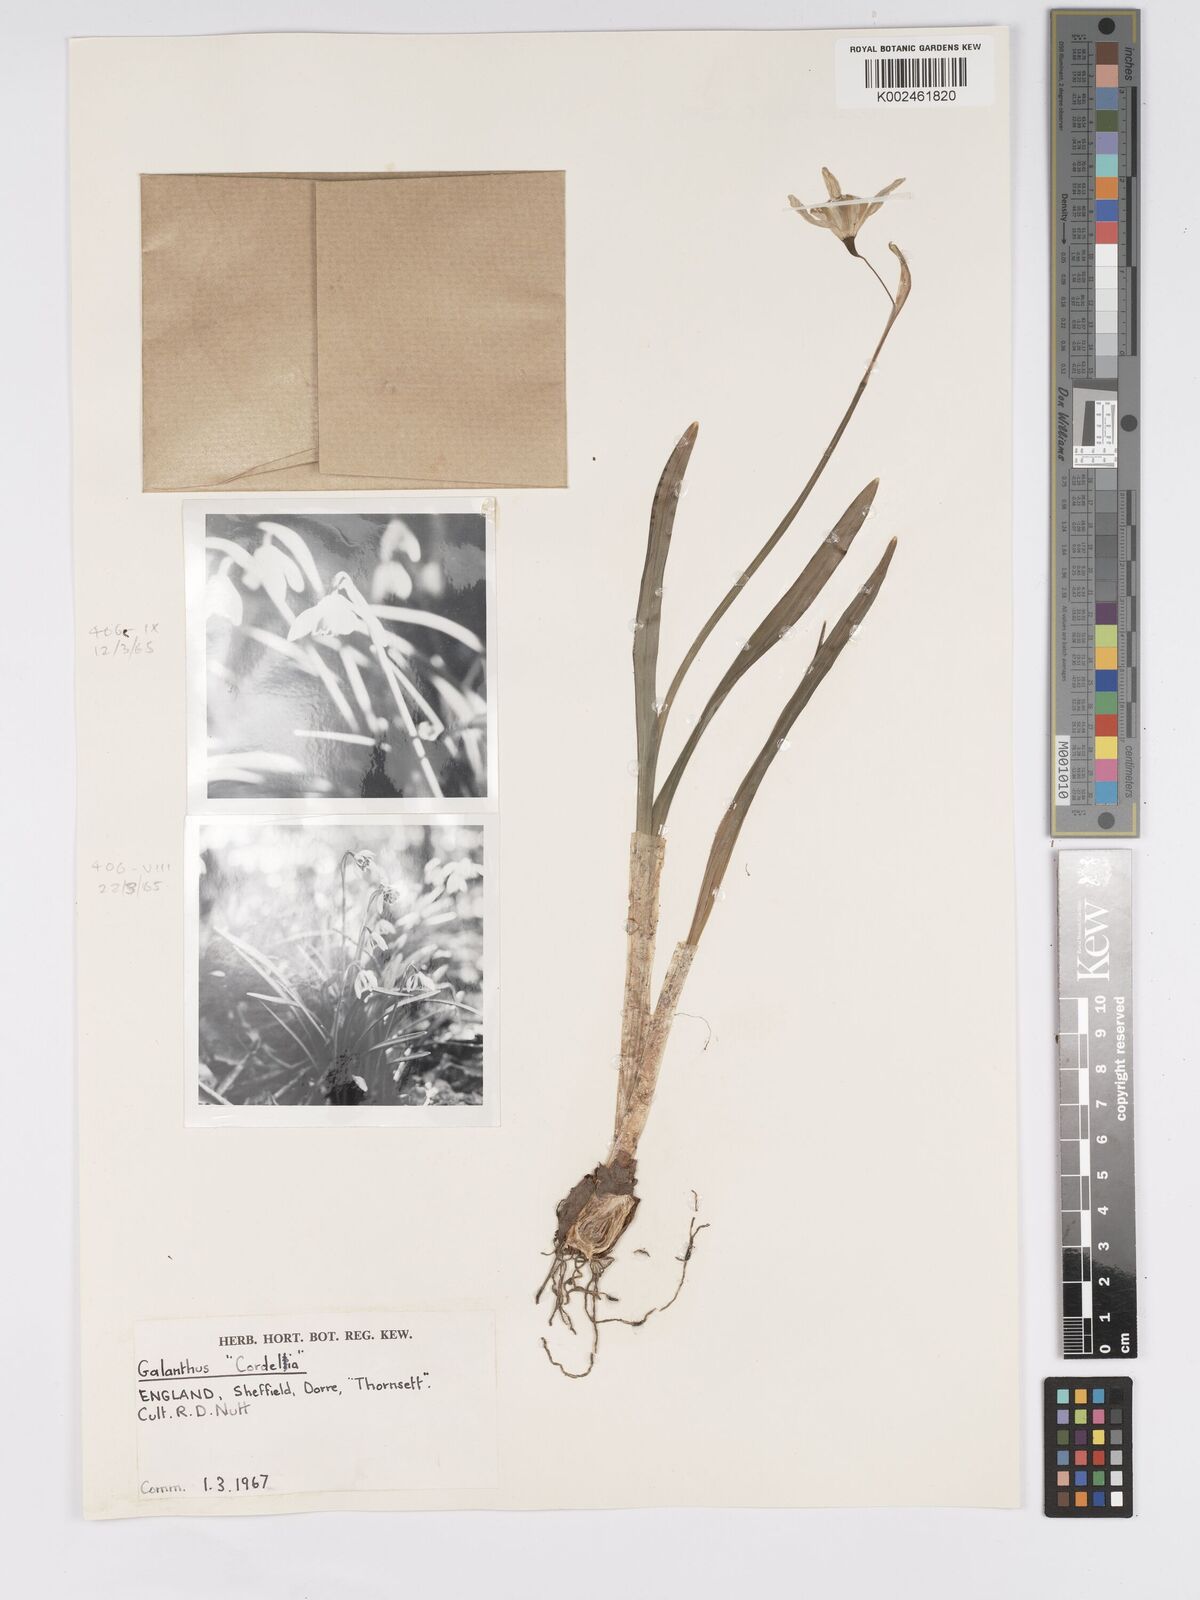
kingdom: Plantae
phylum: Tracheophyta
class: Liliopsida
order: Asparagales
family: Amaryllidaceae
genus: Galanthus
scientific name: Galanthus
